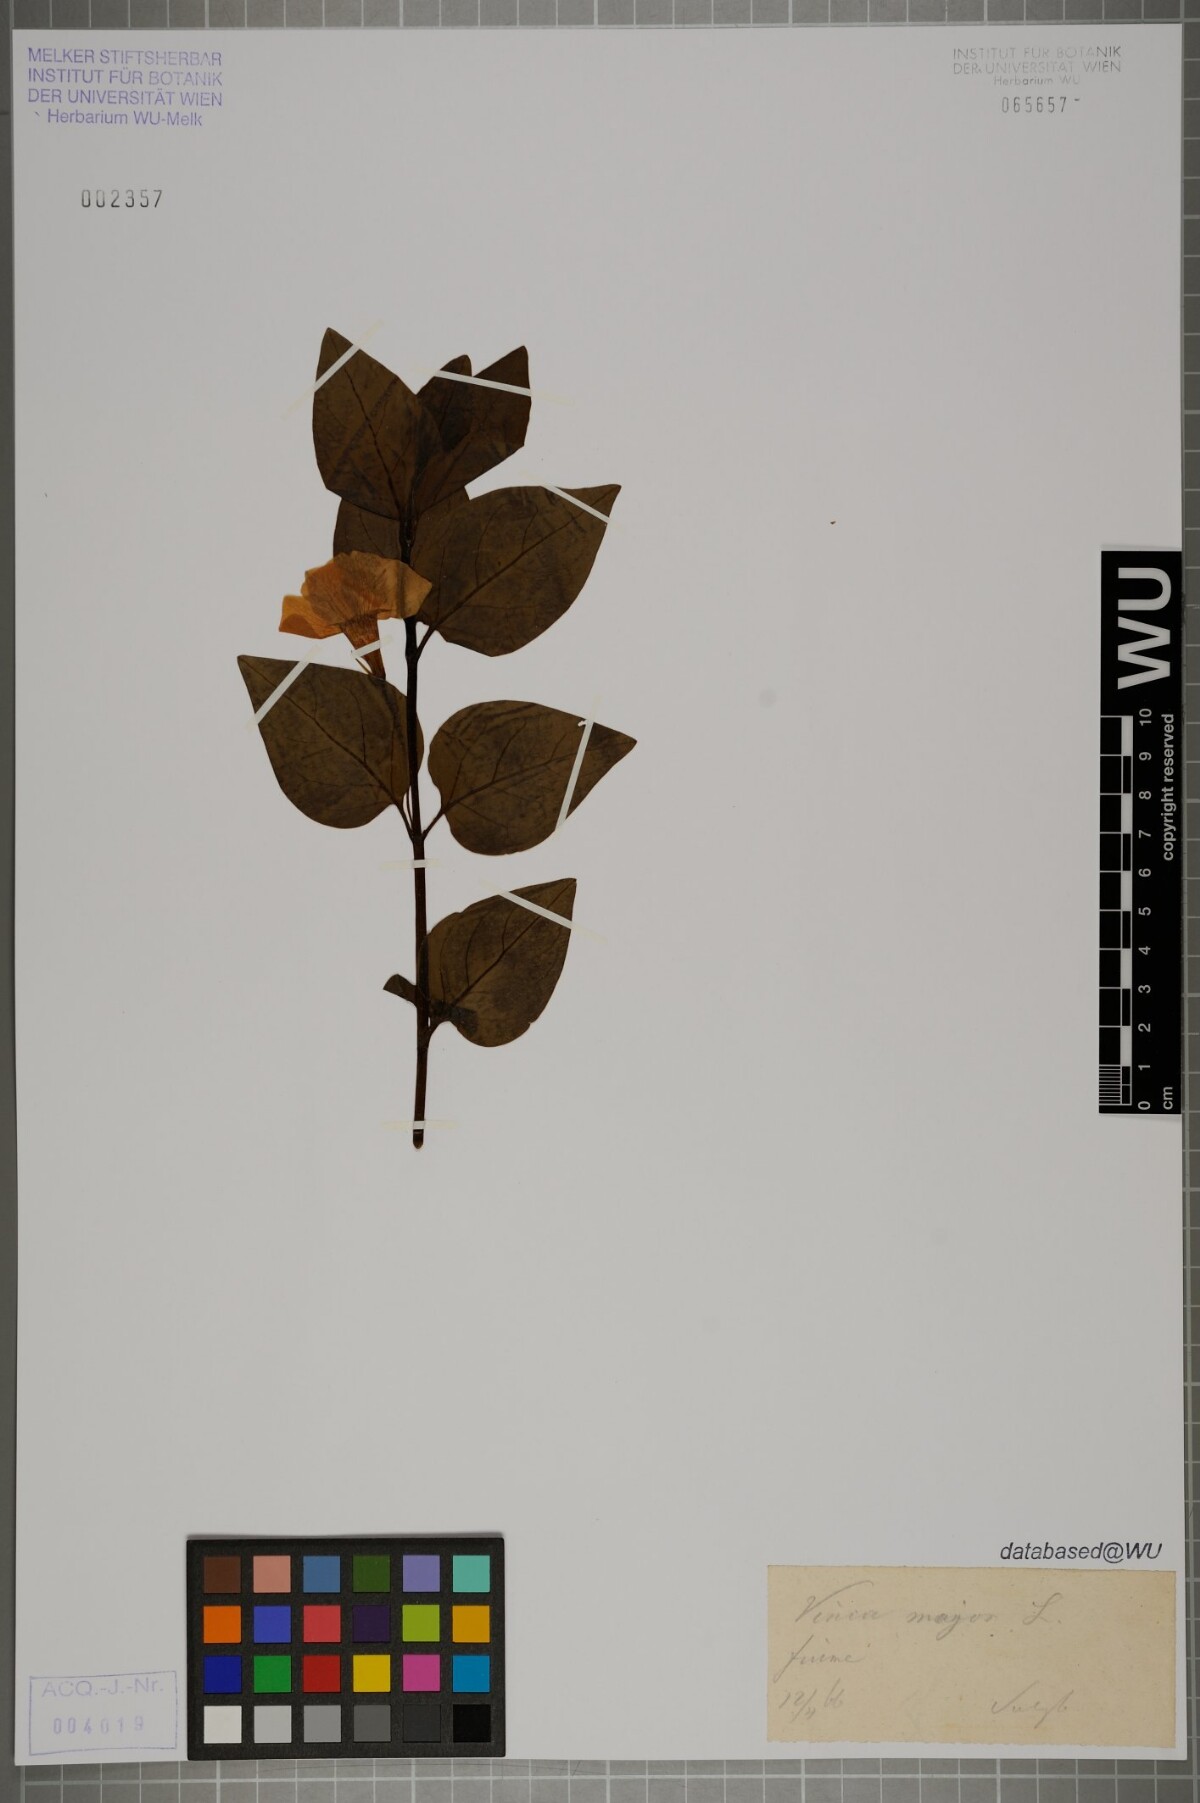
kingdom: Plantae
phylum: Tracheophyta
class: Magnoliopsida
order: Gentianales
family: Apocynaceae
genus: Vinca
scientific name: Vinca major
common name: Greater periwinkle
